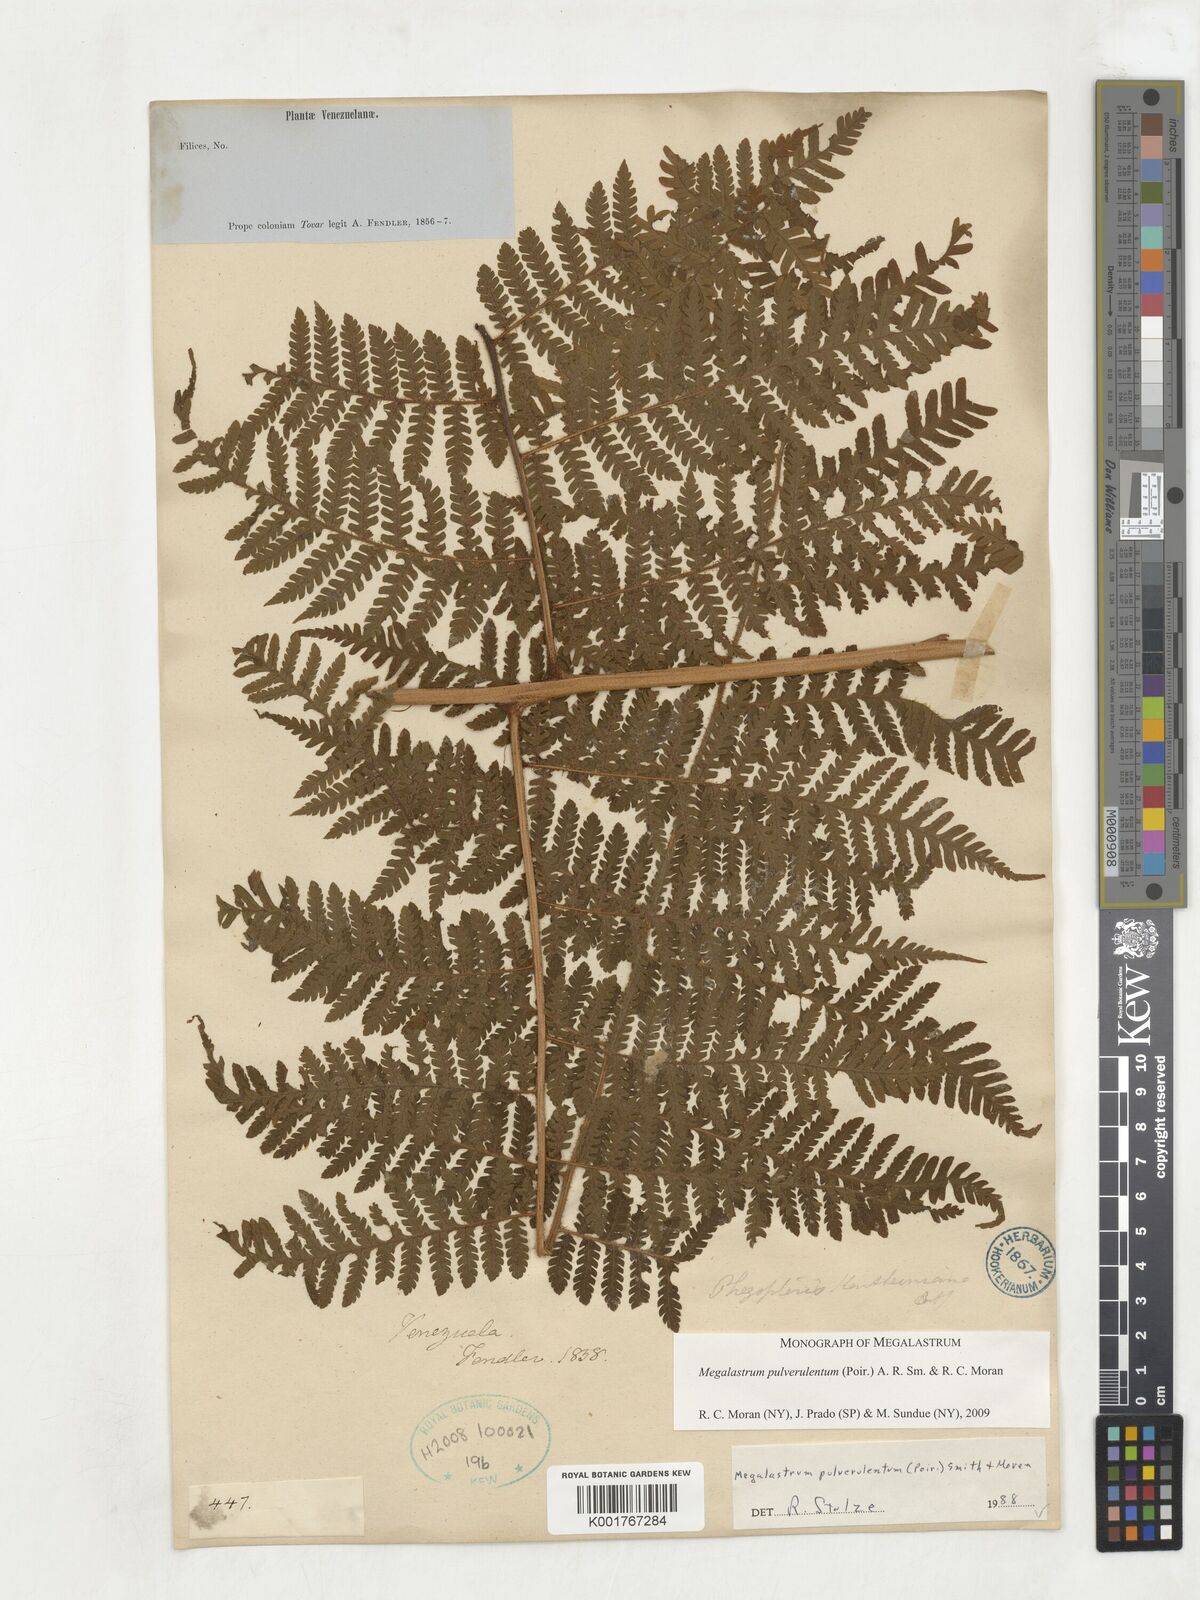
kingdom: Plantae
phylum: Tracheophyta
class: Polypodiopsida
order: Polypodiales
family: Dryopteridaceae
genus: Megalastrum
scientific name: Megalastrum pulverulentum
